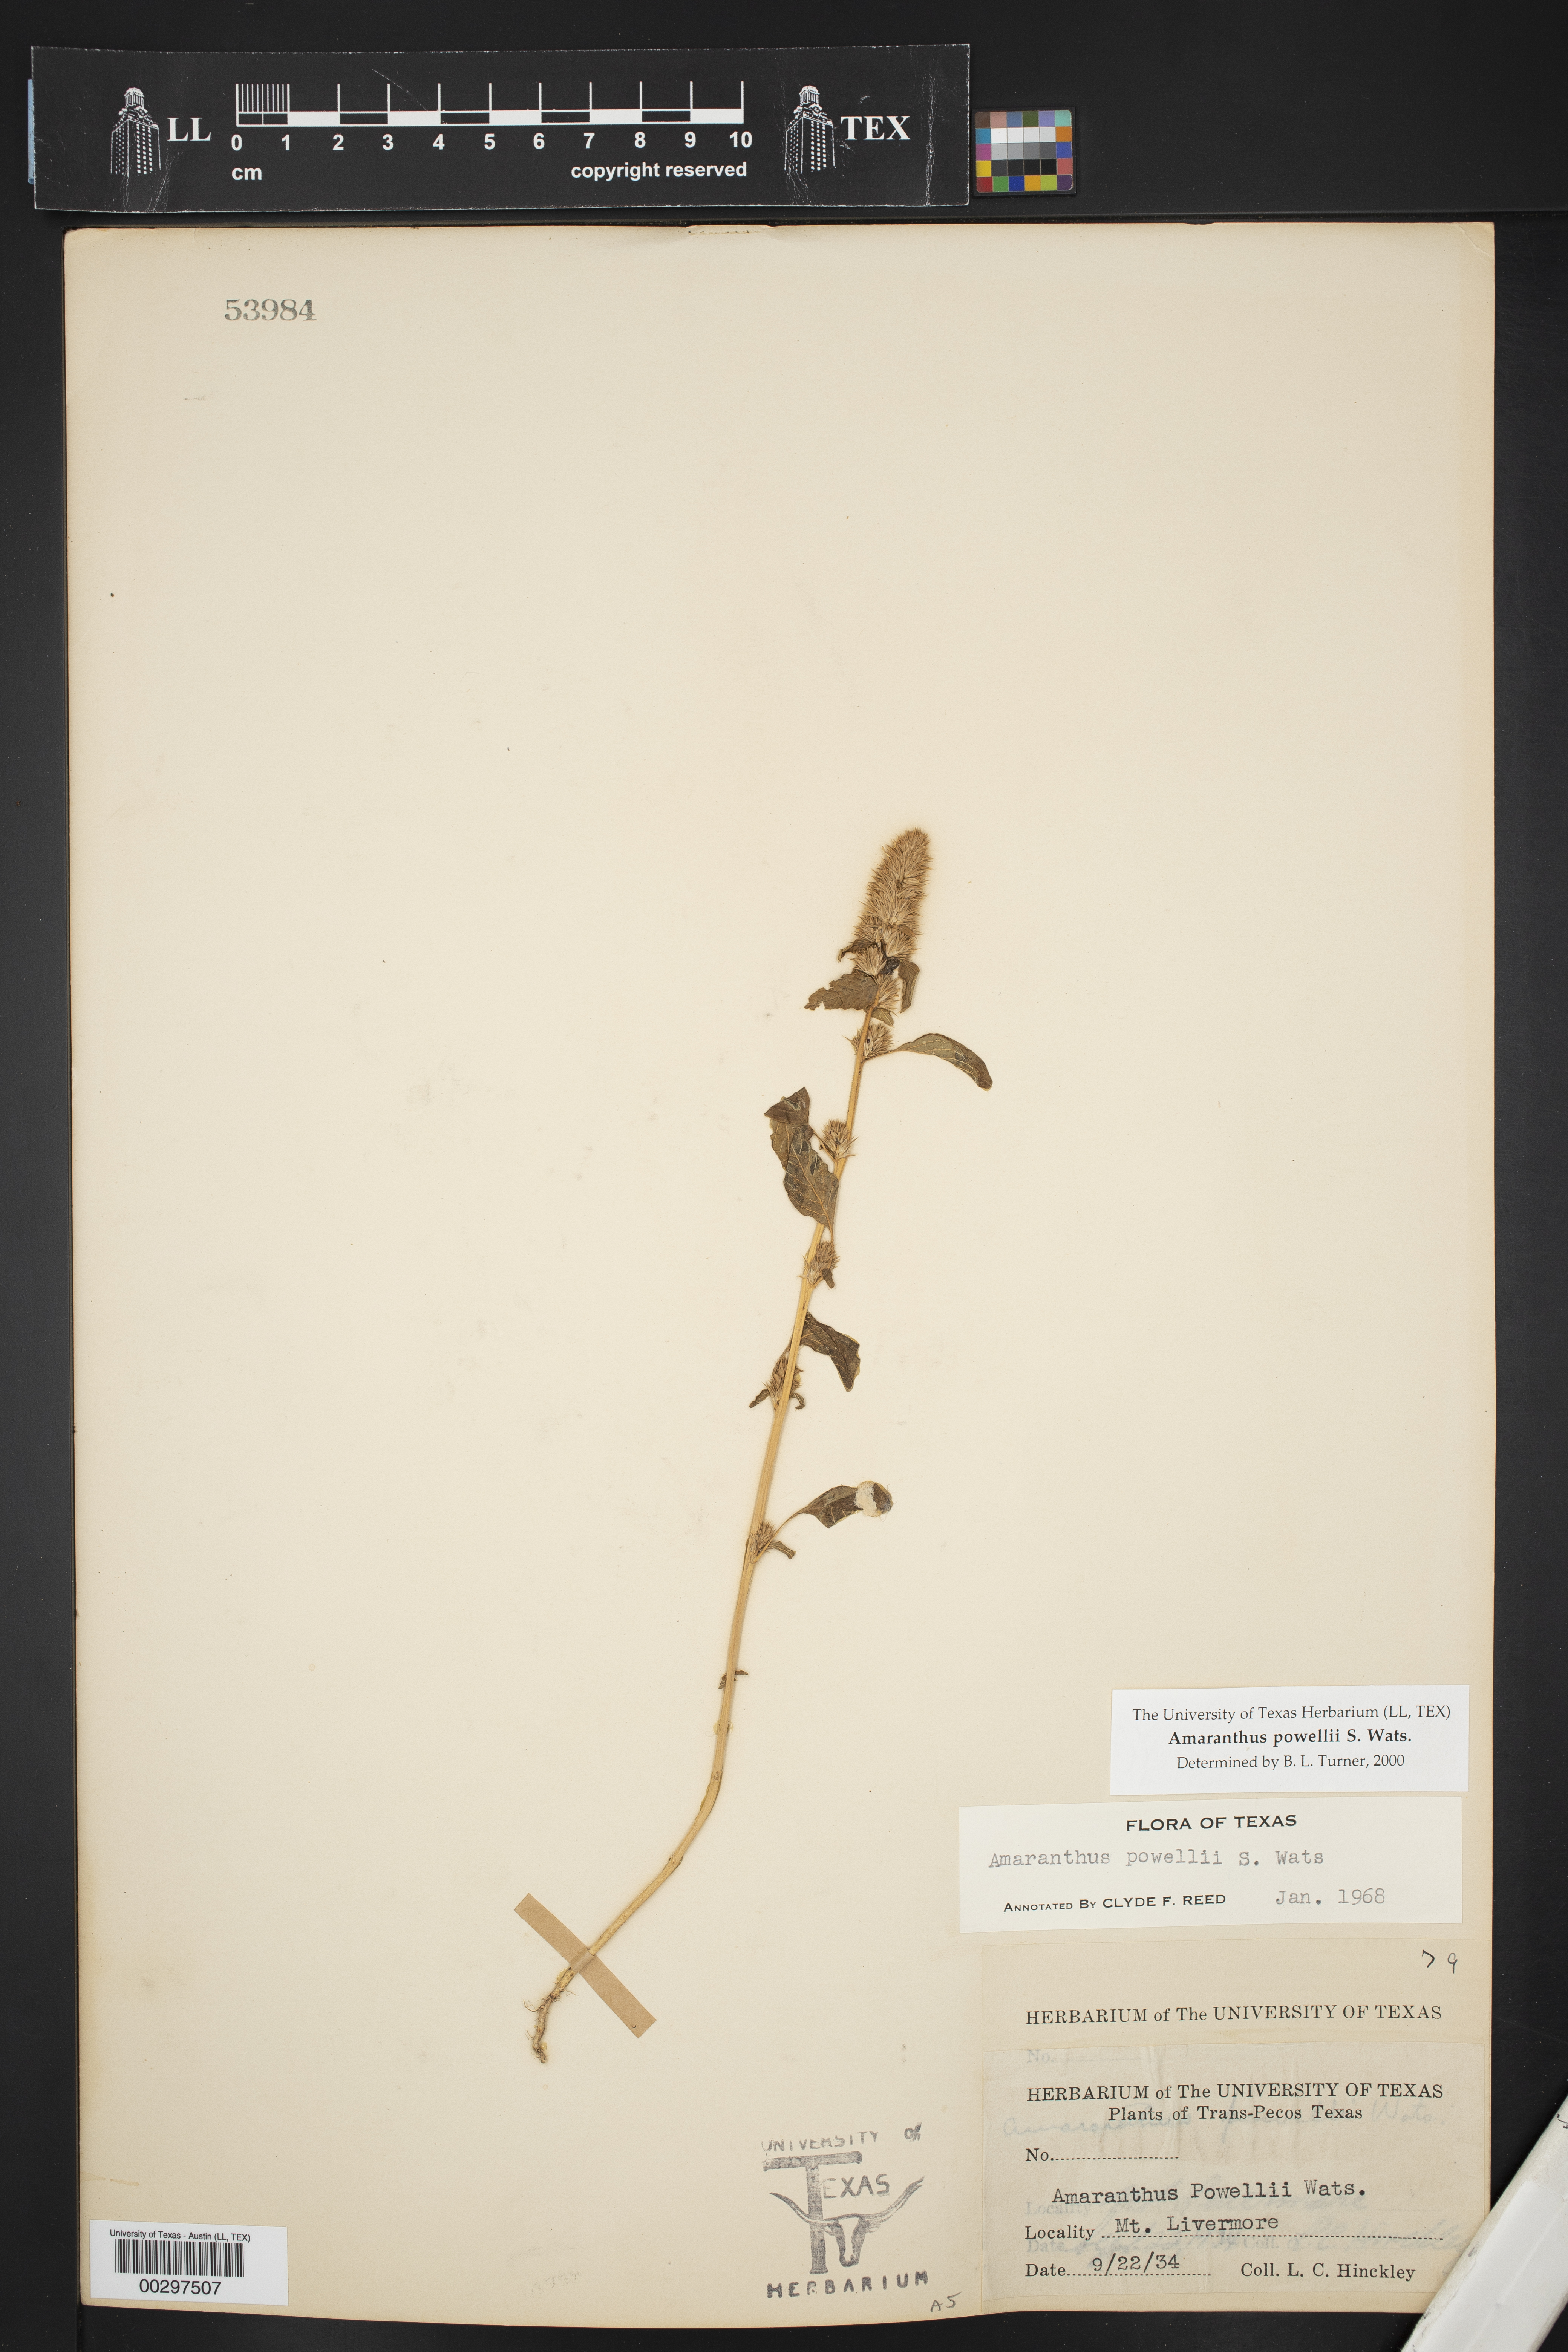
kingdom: Plantae
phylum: Tracheophyta
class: Magnoliopsida
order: Caryophyllales
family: Amaranthaceae
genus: Amaranthus
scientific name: Amaranthus powellii
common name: Powell's amaranth
